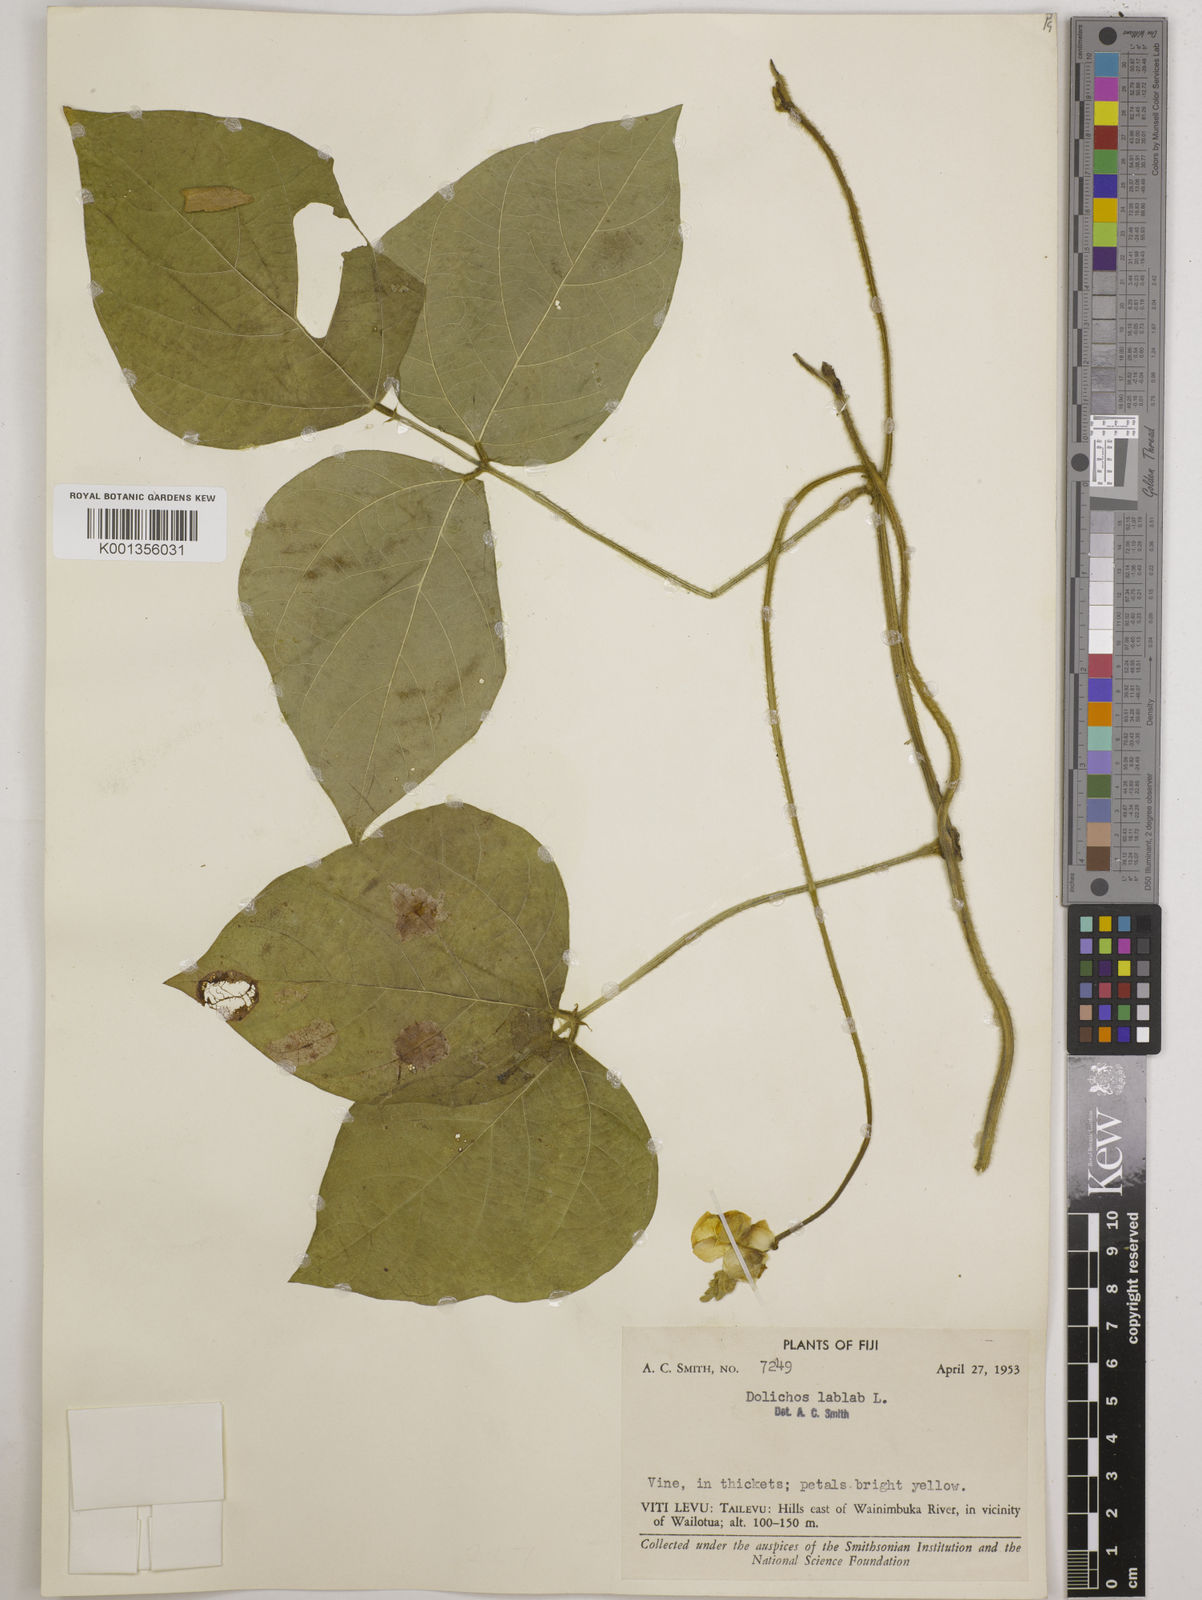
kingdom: Plantae
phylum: Tracheophyta
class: Magnoliopsida
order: Fabales
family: Fabaceae
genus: Lablab
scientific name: Lablab purpureus
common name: Lablab-bean
